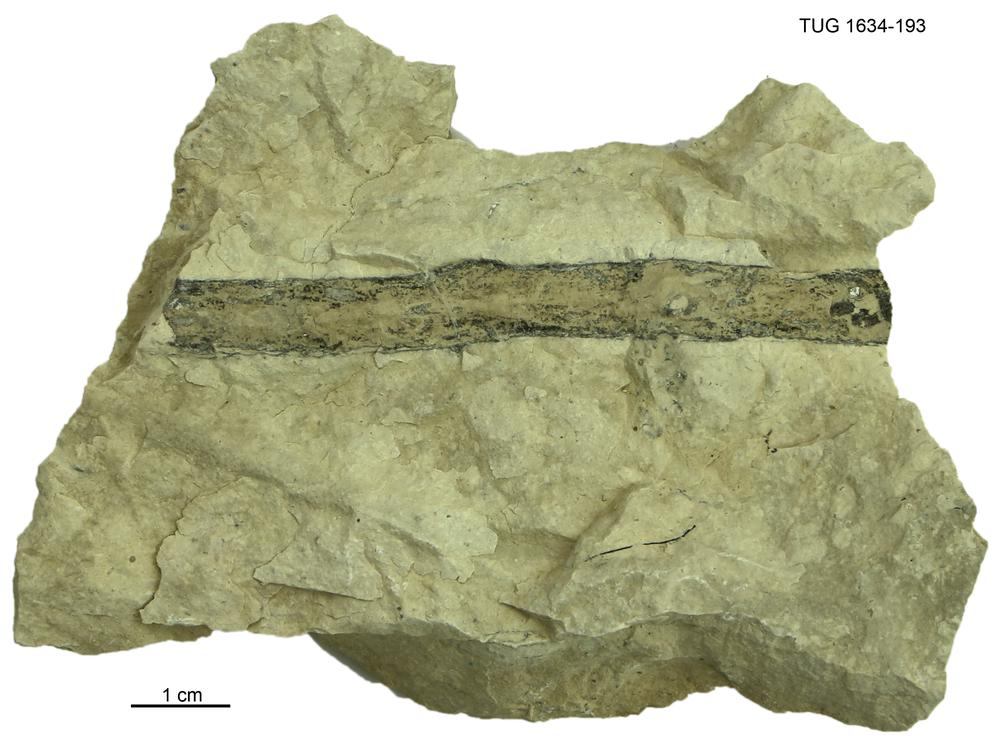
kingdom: Animalia
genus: Palaeophycus
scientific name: Palaeophycus
